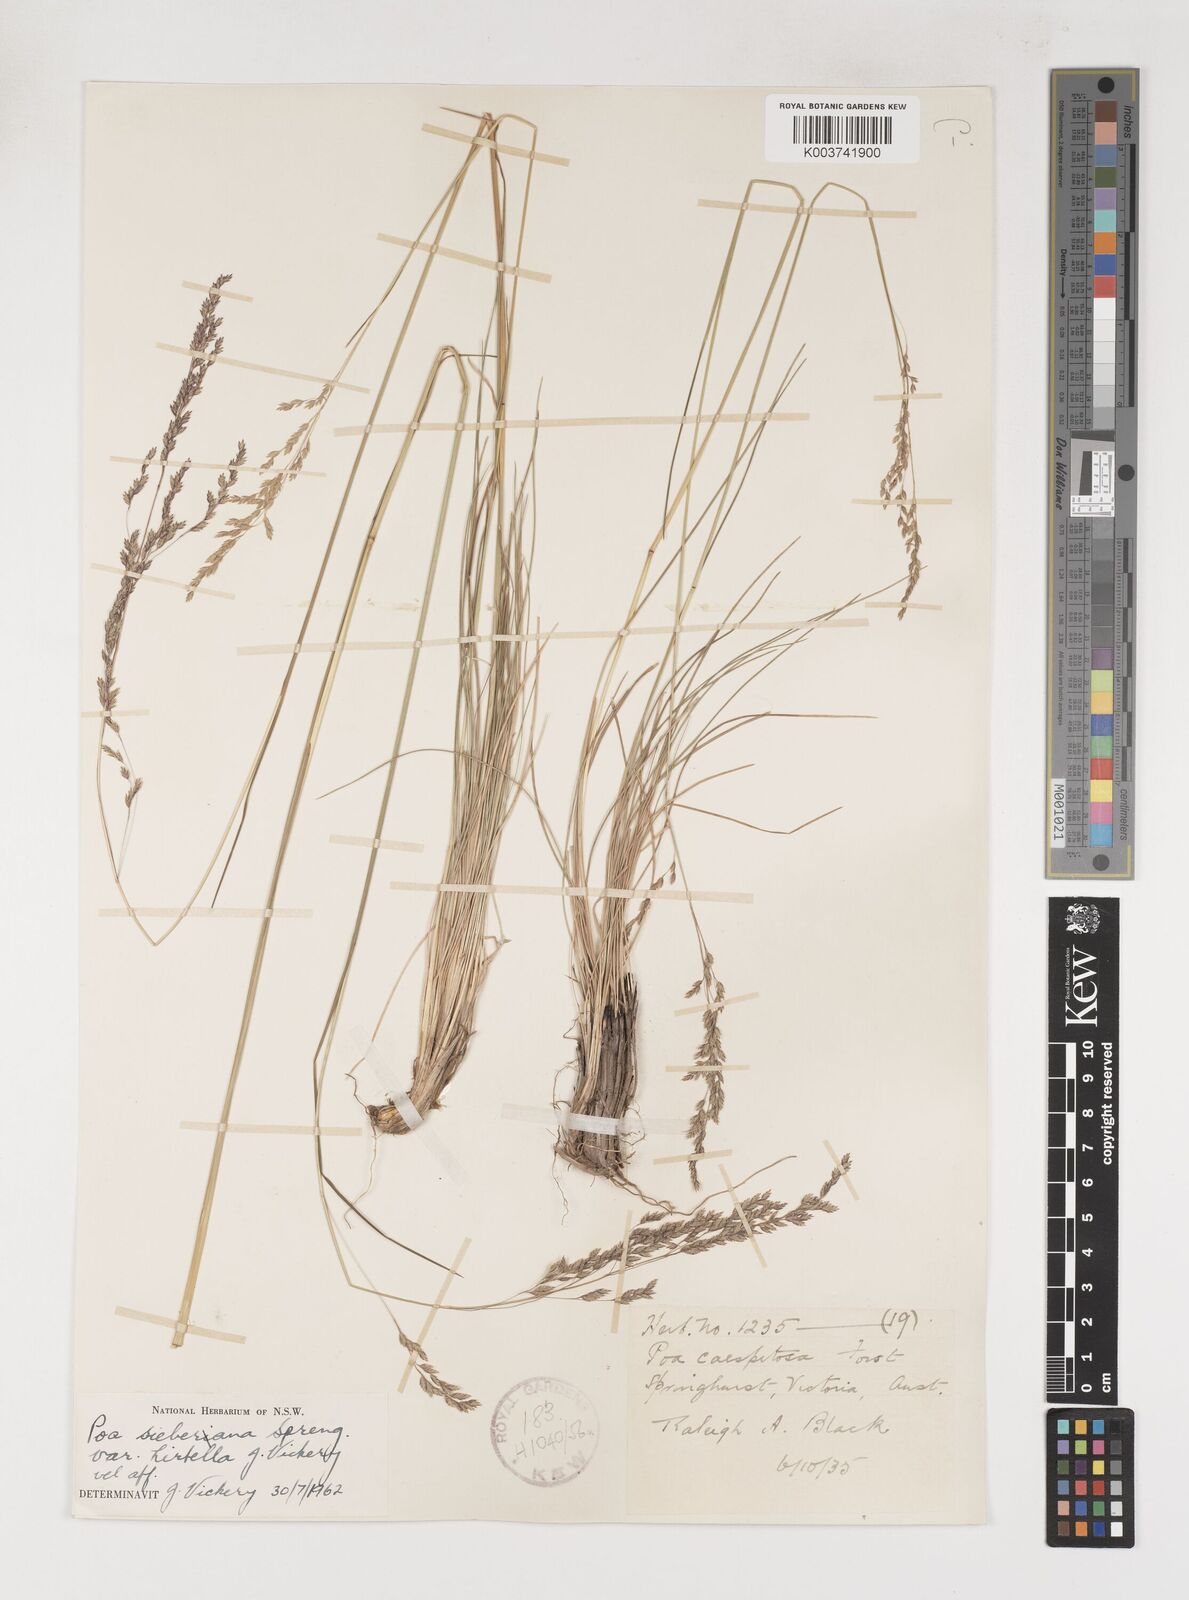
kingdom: Plantae
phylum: Tracheophyta
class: Liliopsida
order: Poales
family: Poaceae
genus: Poa
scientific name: Poa sieberiana
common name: Tussock poa
